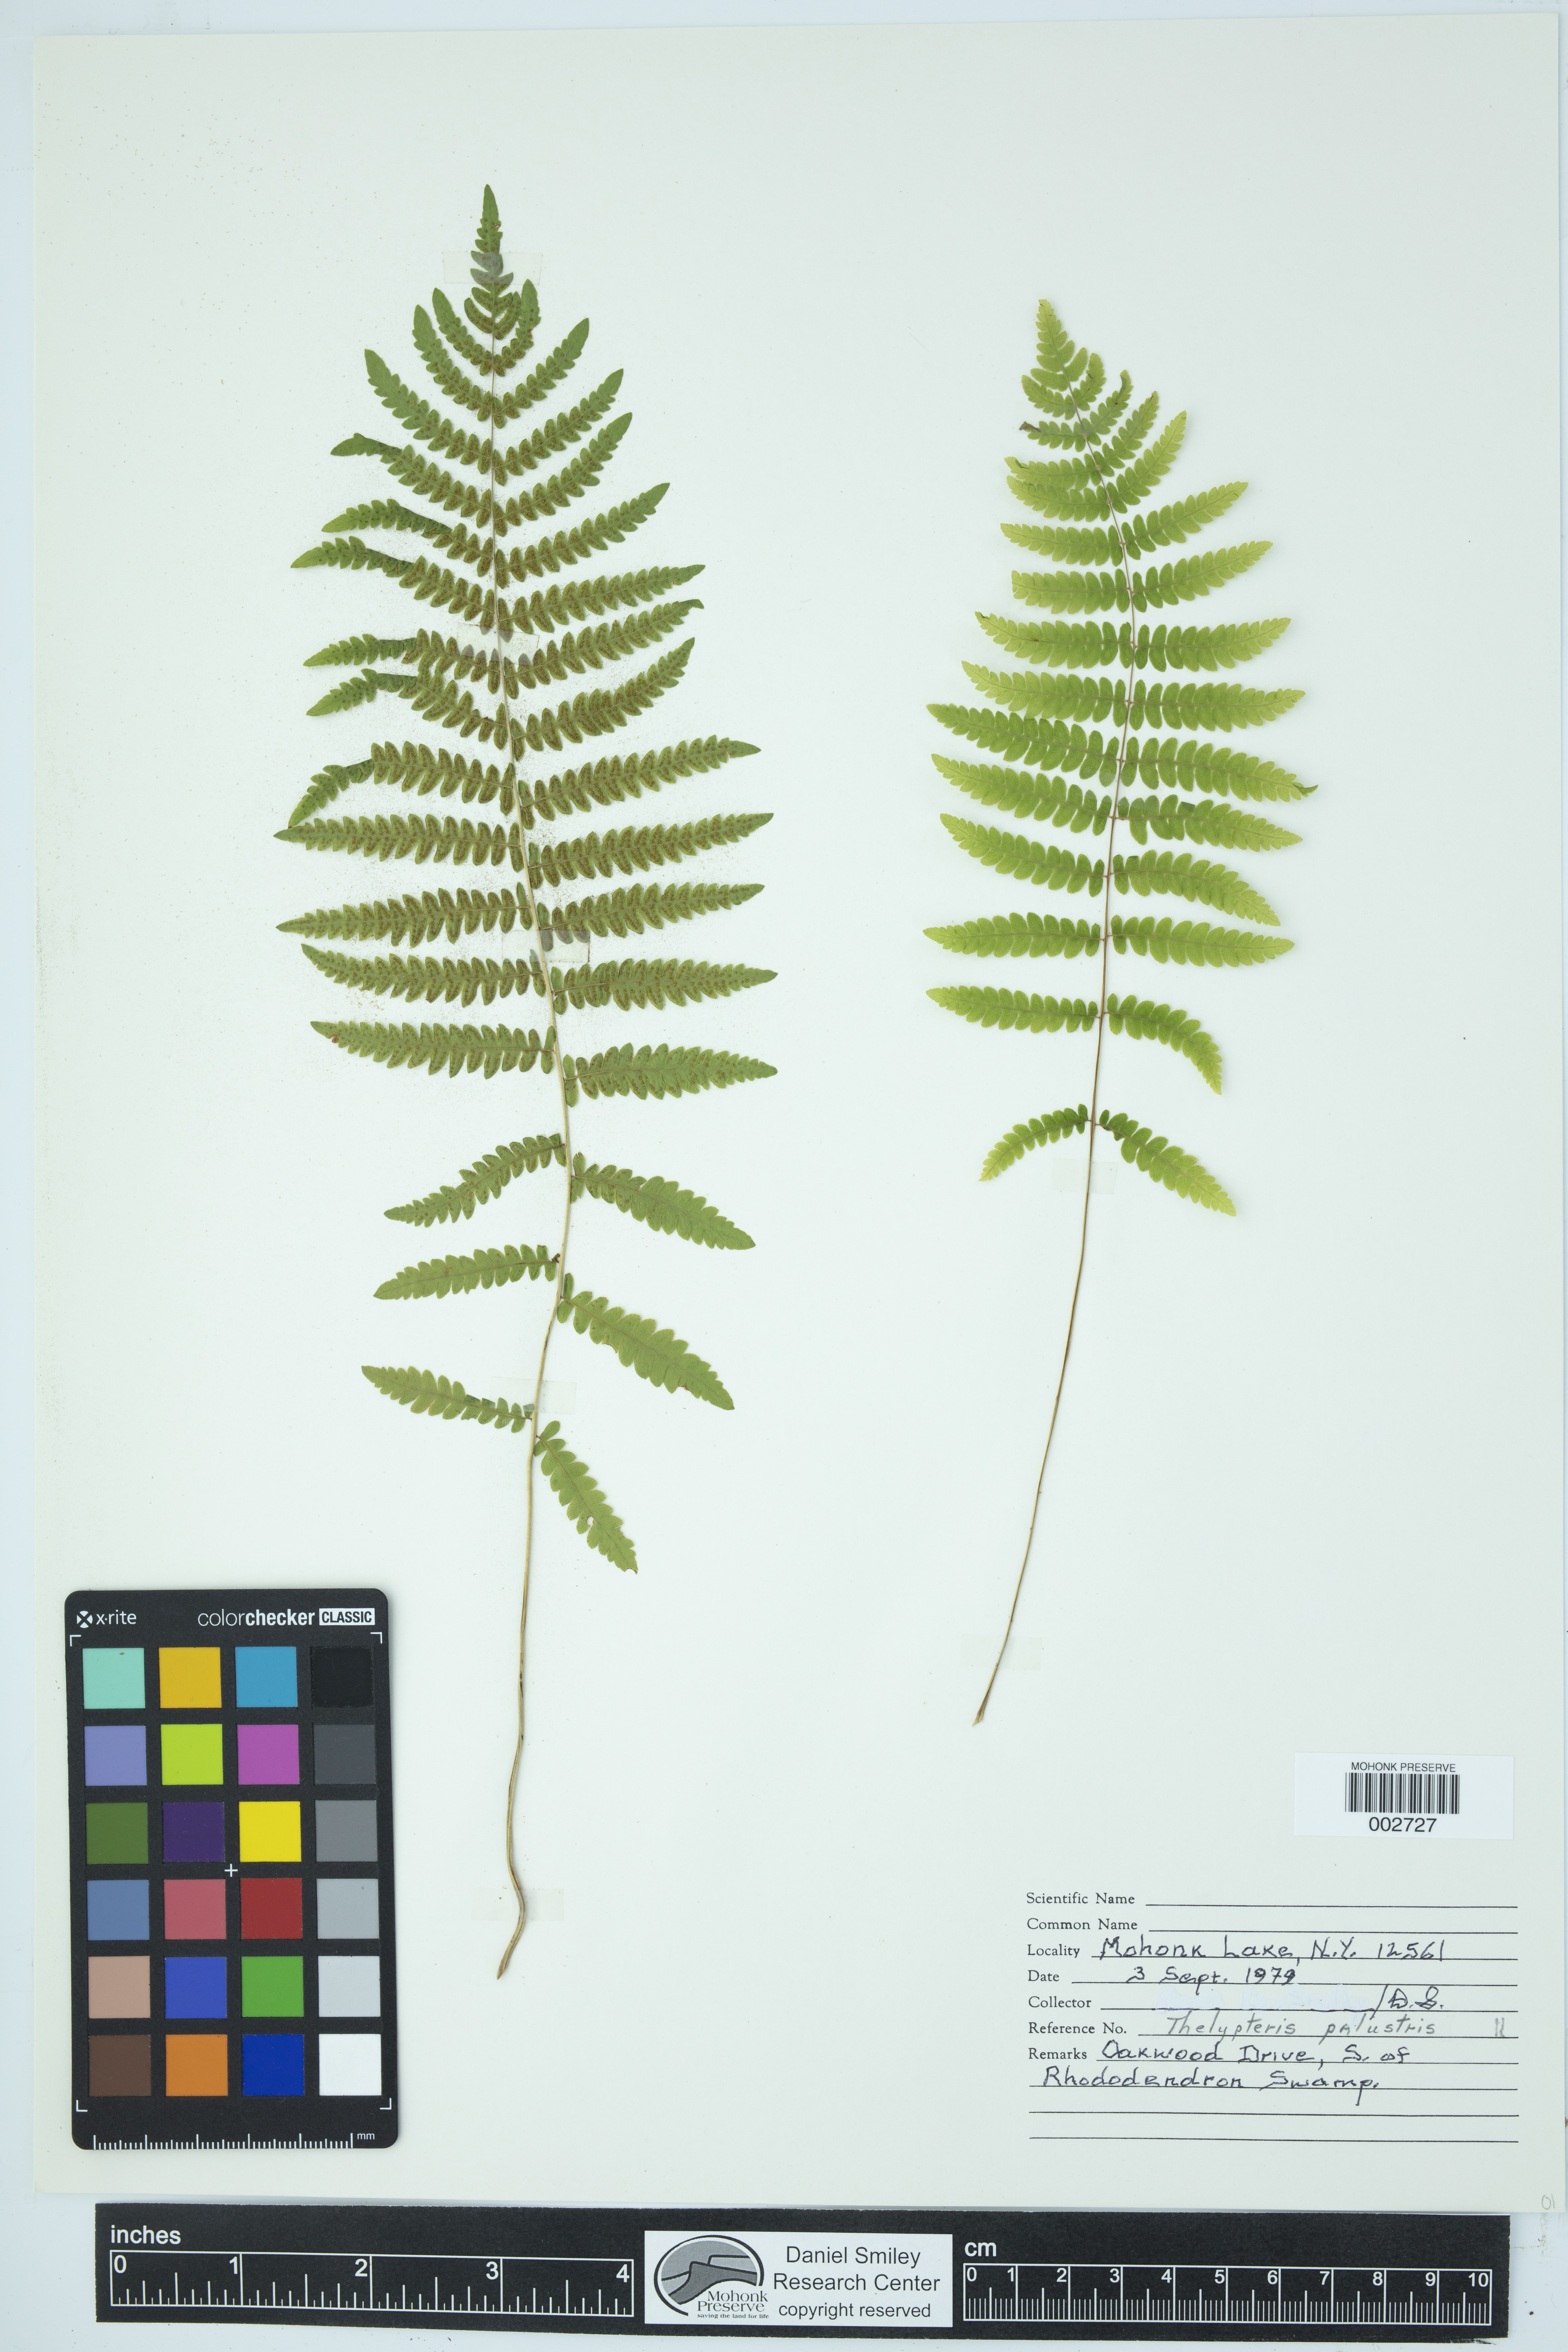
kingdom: Plantae
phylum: Tracheophyta
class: Polypodiopsida
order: Polypodiales
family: Thelypteridaceae
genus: Thelypteris
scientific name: Thelypteris confluens
